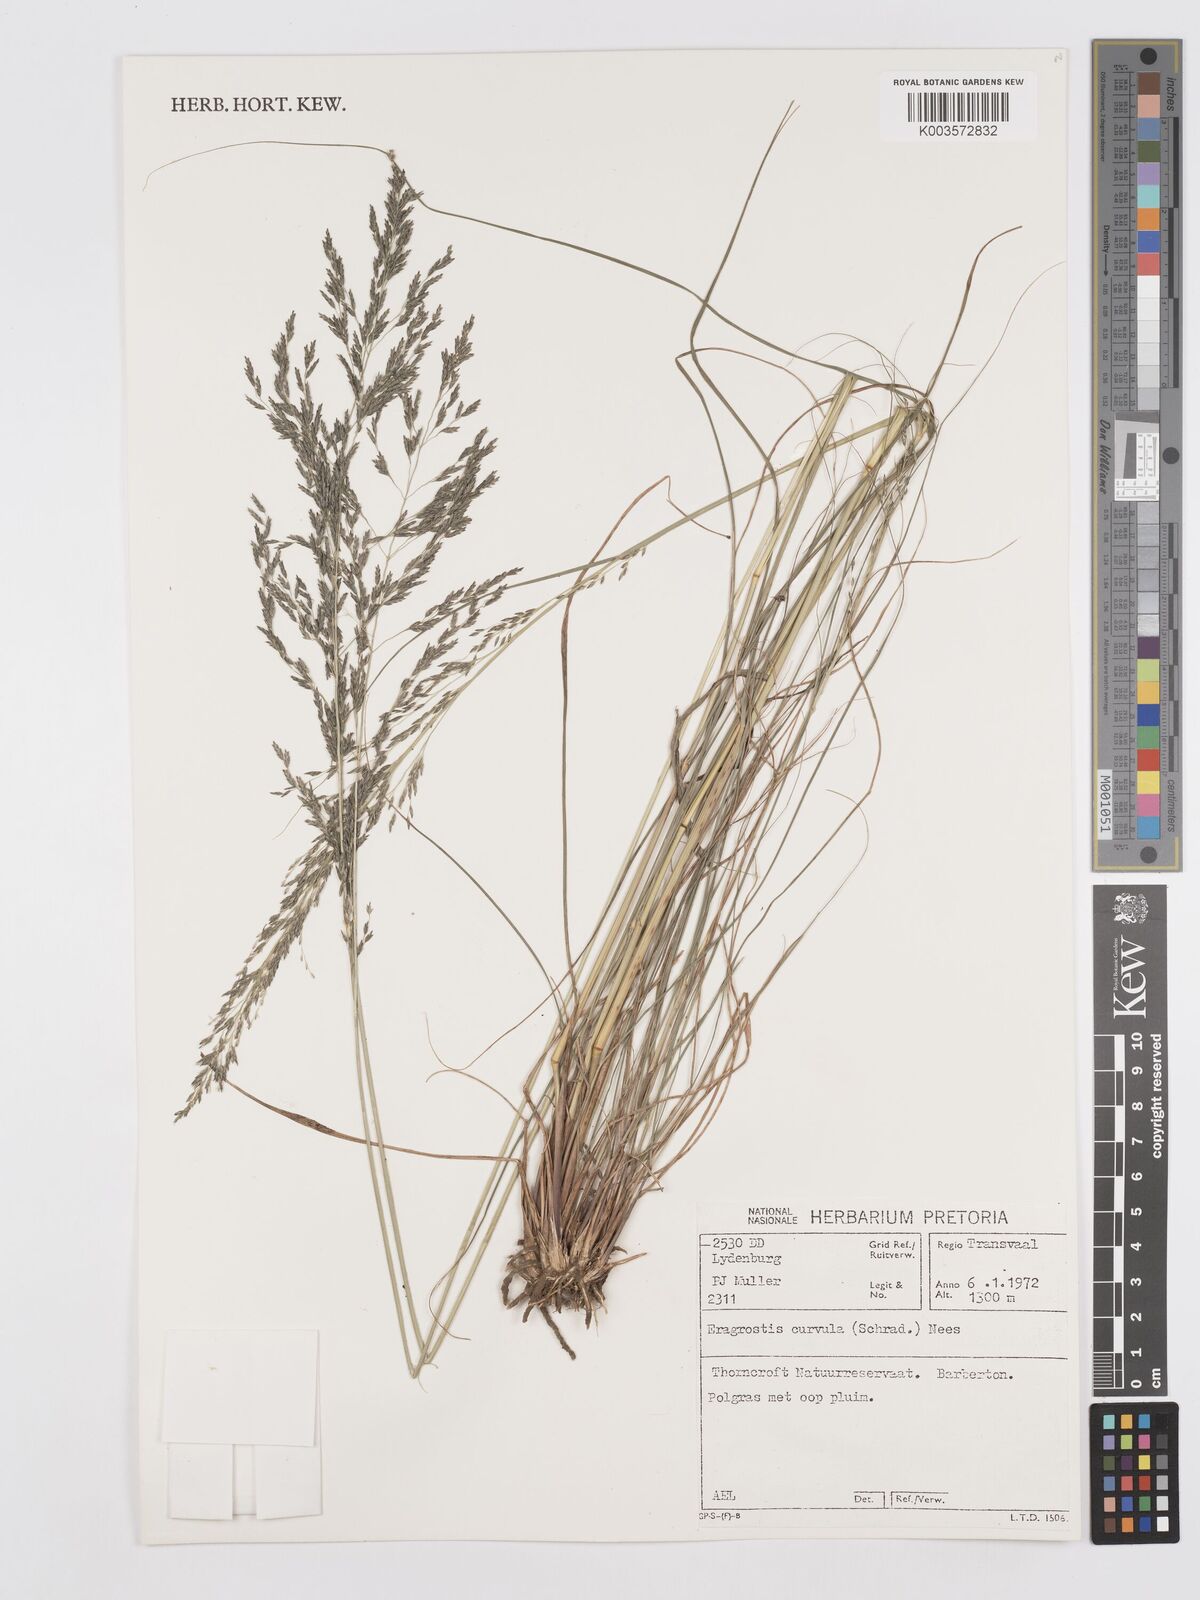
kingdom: Plantae
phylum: Tracheophyta
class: Liliopsida
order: Poales
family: Poaceae
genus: Eragrostis
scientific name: Eragrostis curvula
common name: African love-grass
